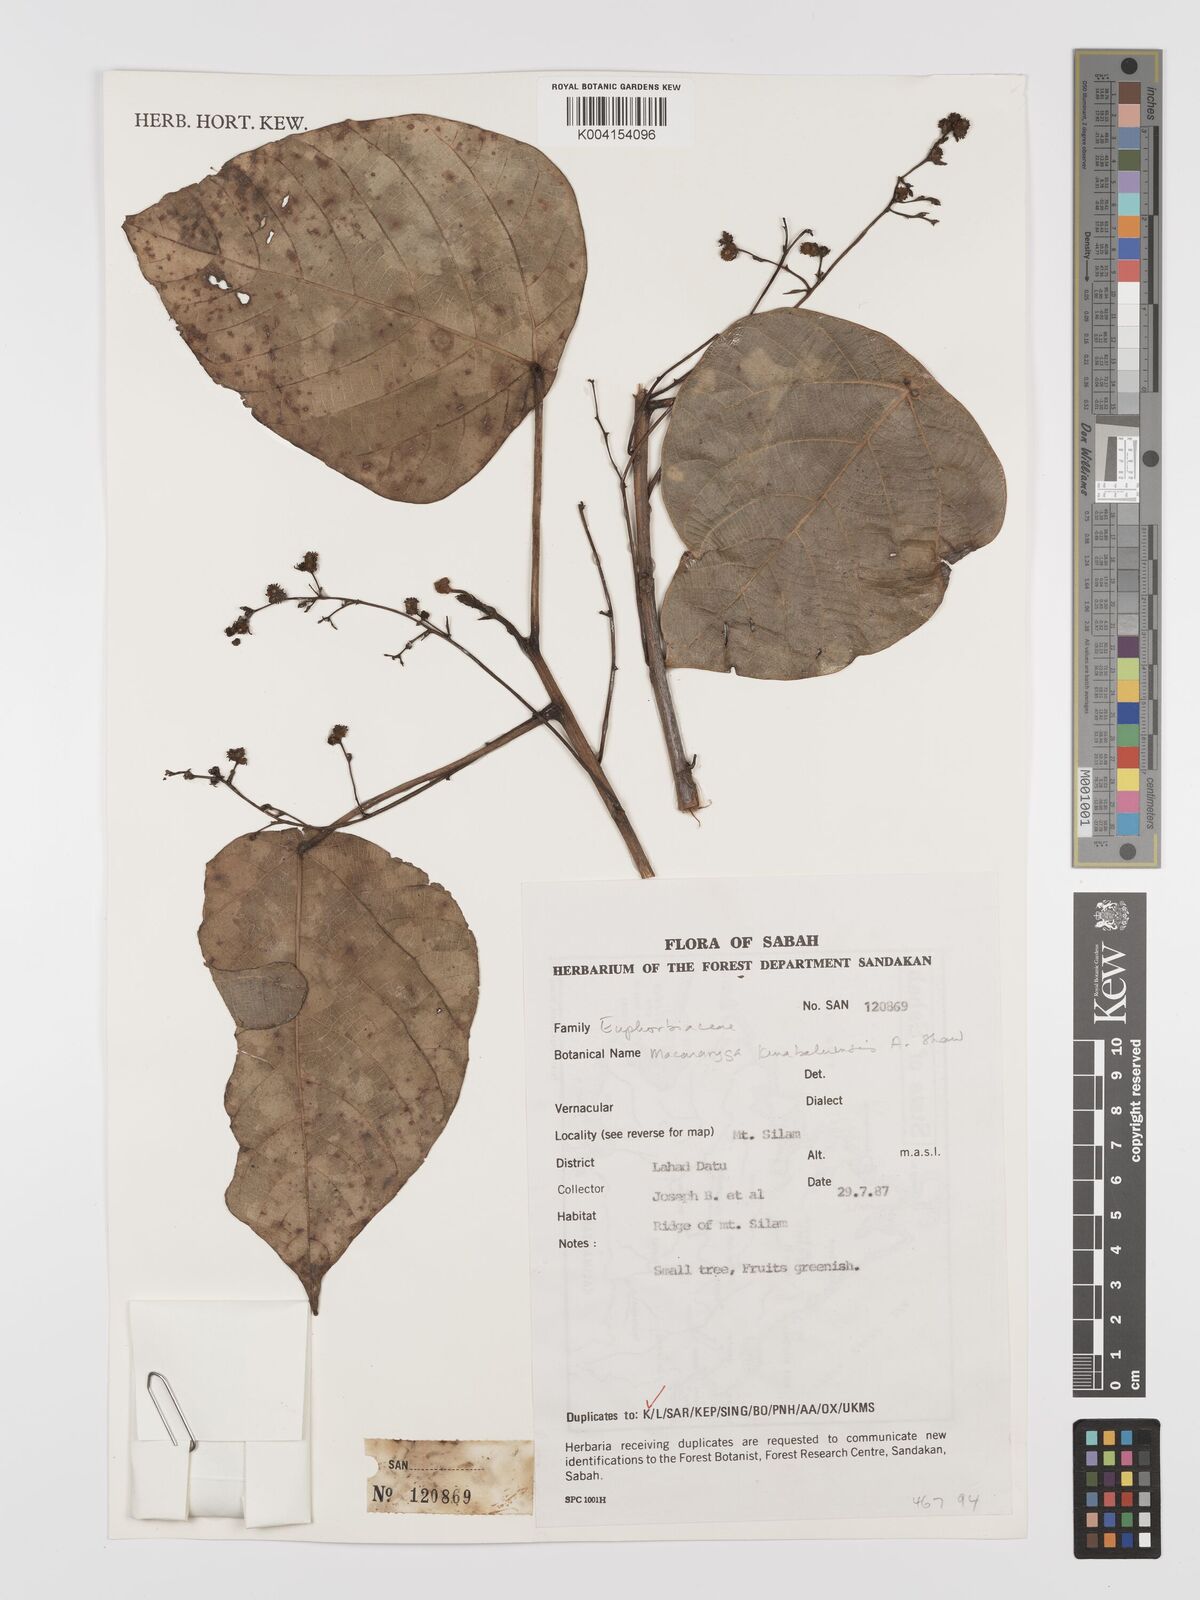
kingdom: Plantae
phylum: Tracheophyta
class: Magnoliopsida
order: Malpighiales
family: Euphorbiaceae
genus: Macaranga
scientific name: Macaranga kinabaluensis
